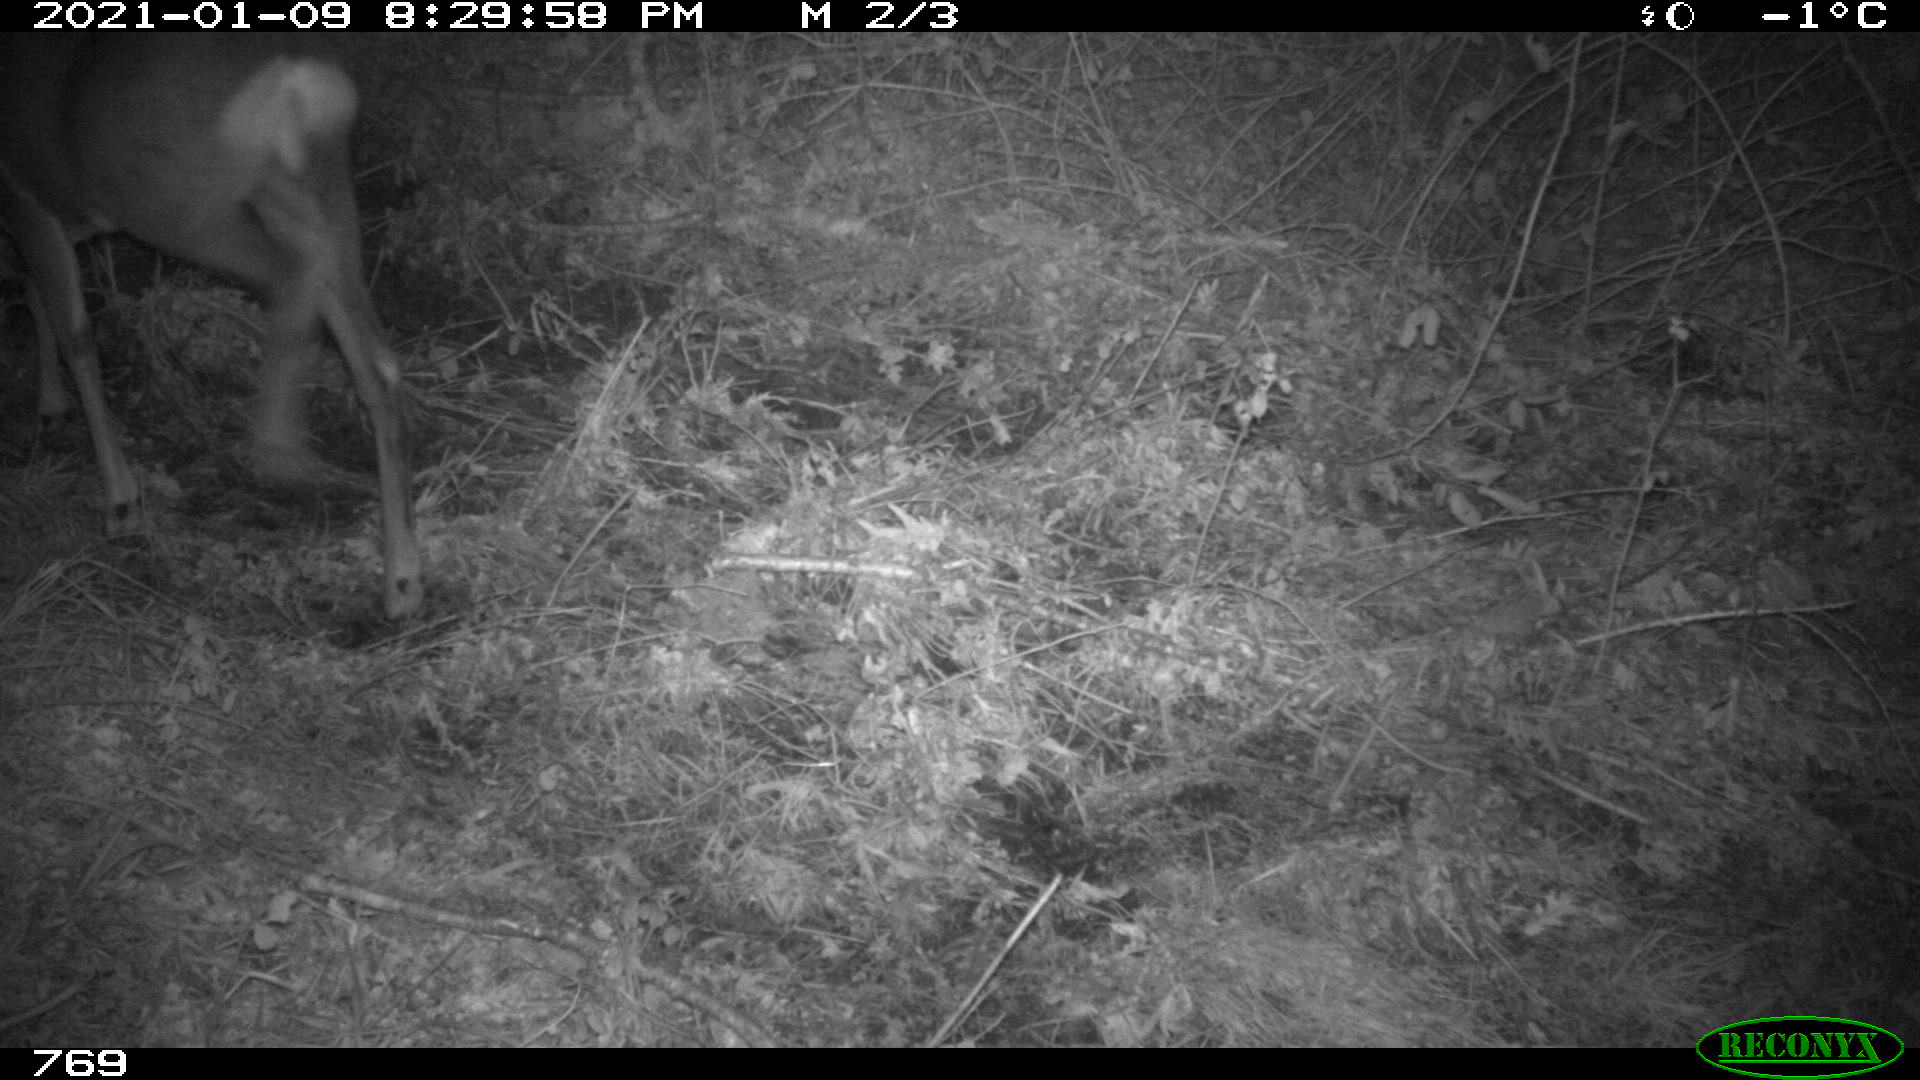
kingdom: Animalia
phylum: Chordata
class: Mammalia
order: Artiodactyla
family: Cervidae
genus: Capreolus
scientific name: Capreolus capreolus
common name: Western roe deer
